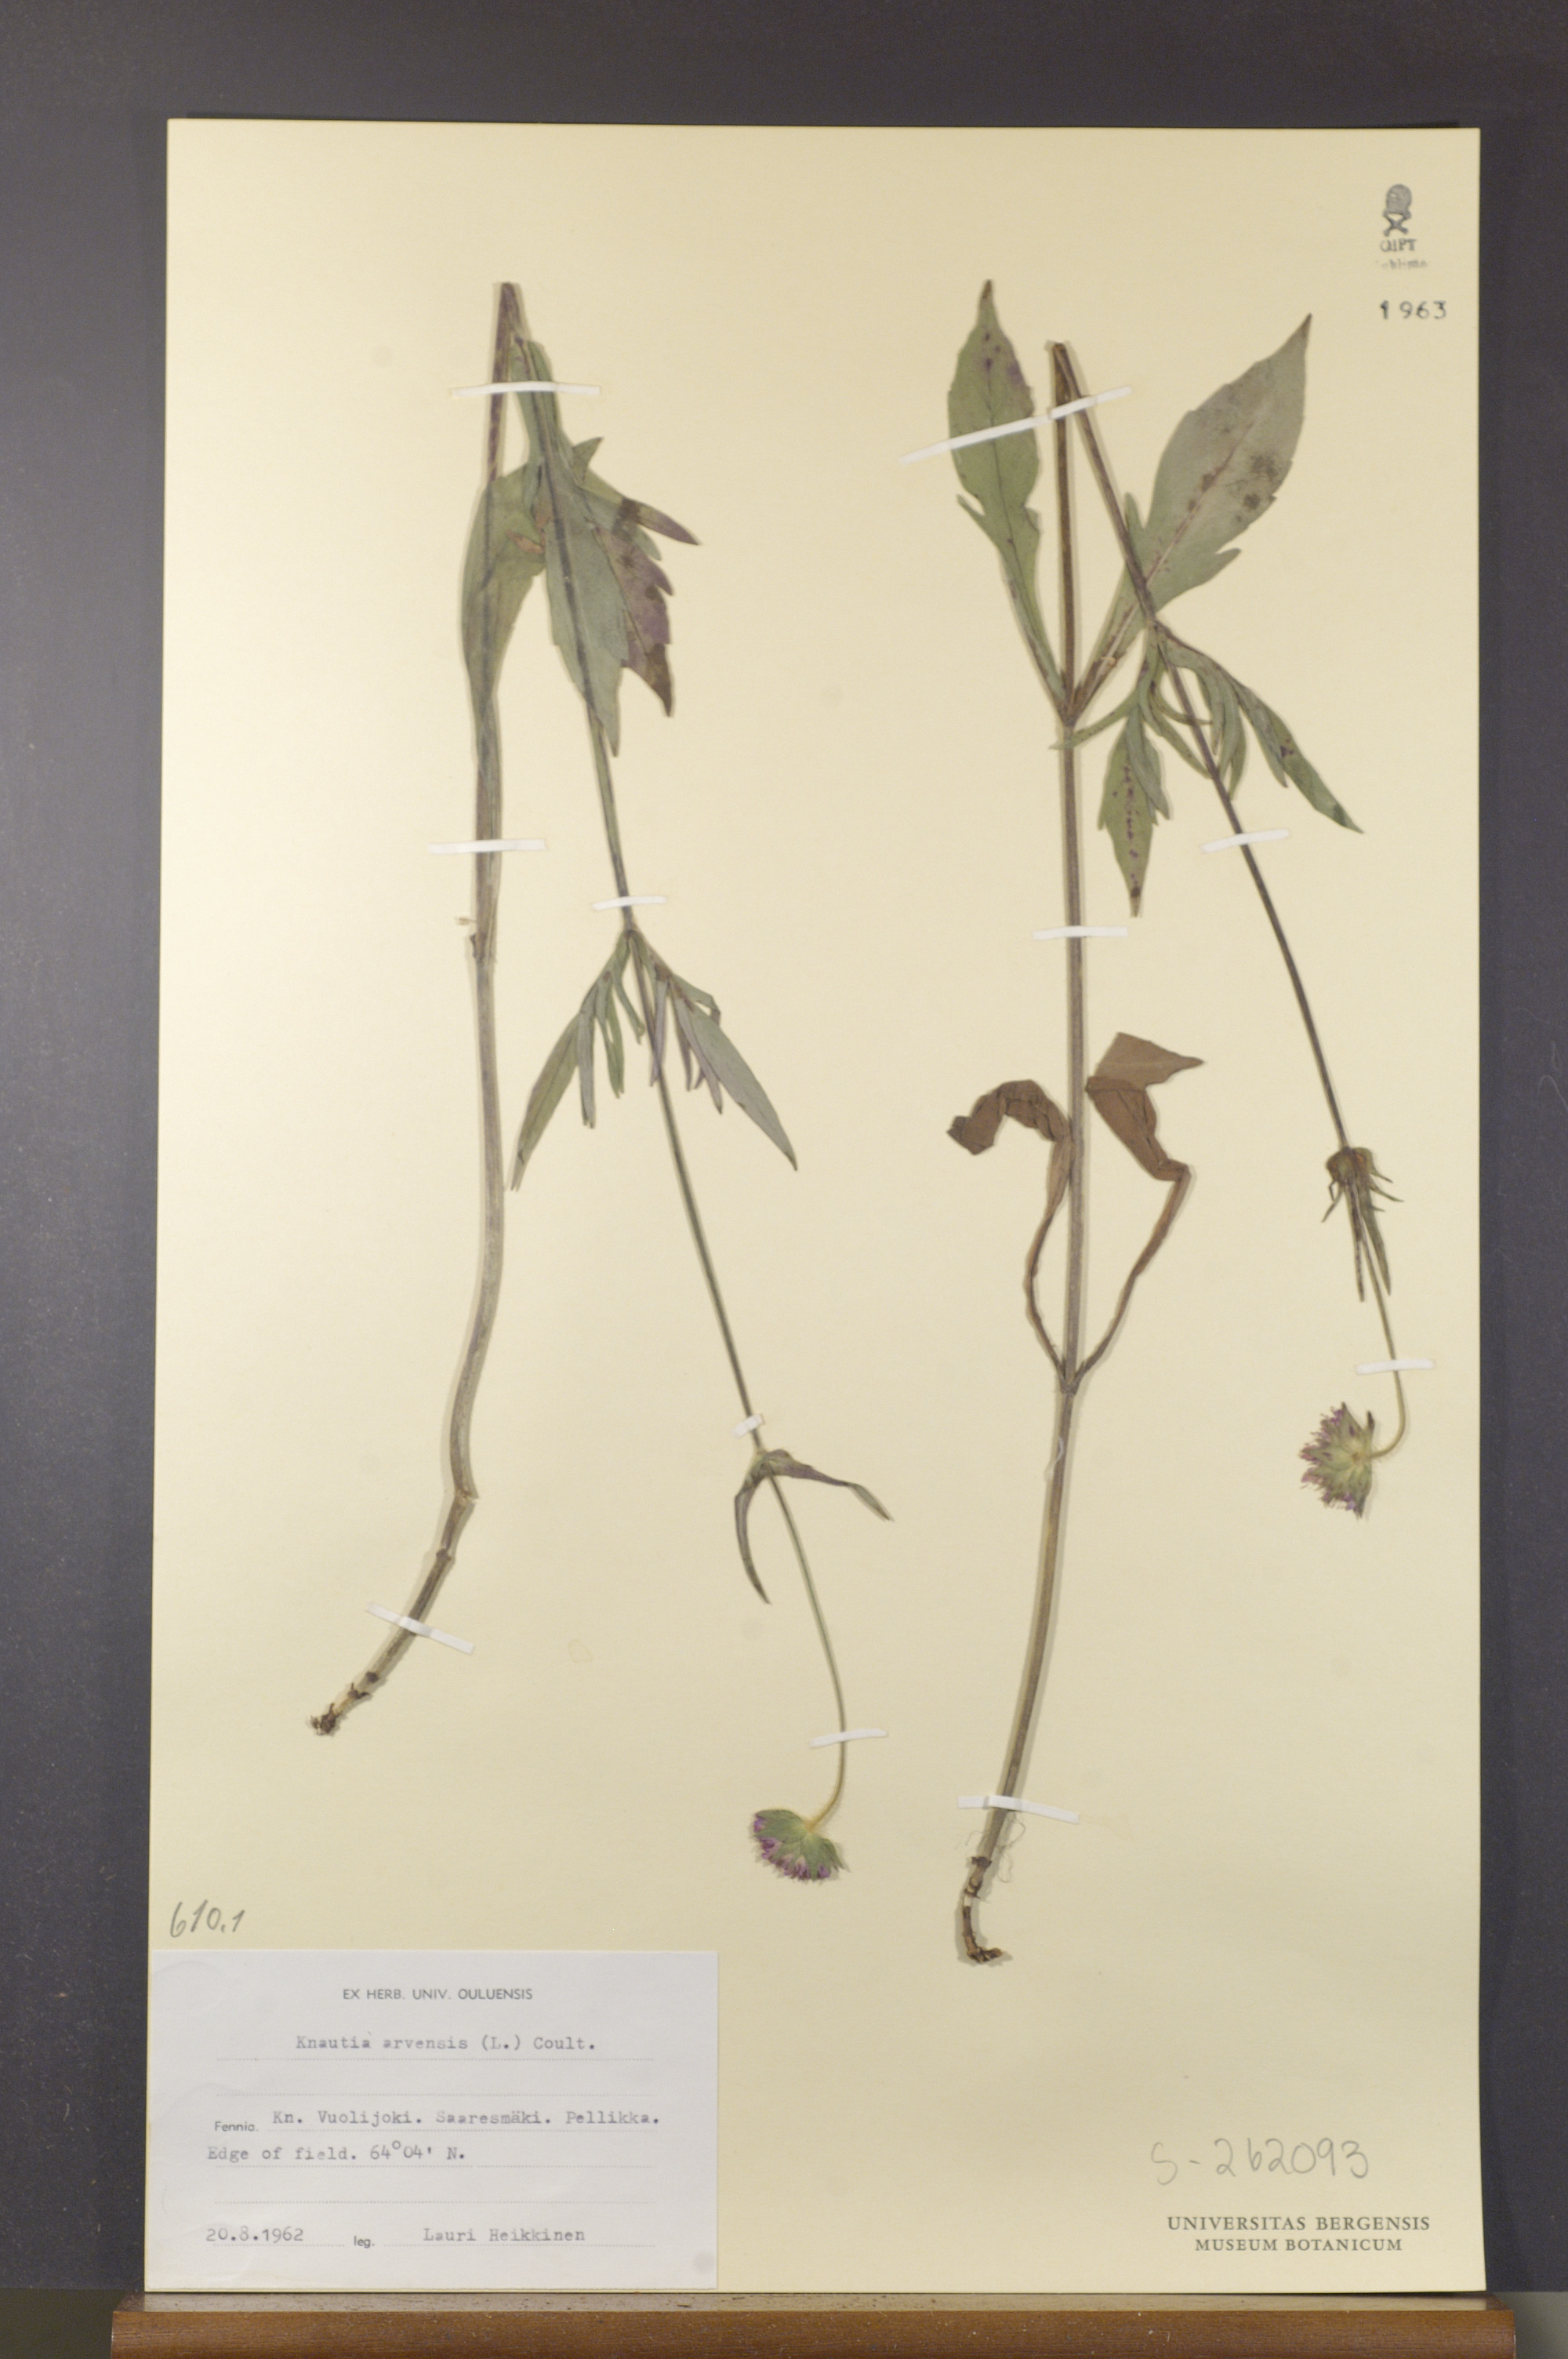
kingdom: Plantae
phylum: Tracheophyta
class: Magnoliopsida
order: Dipsacales
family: Caprifoliaceae
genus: Knautia
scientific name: Knautia arvensis
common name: Field scabiosa
